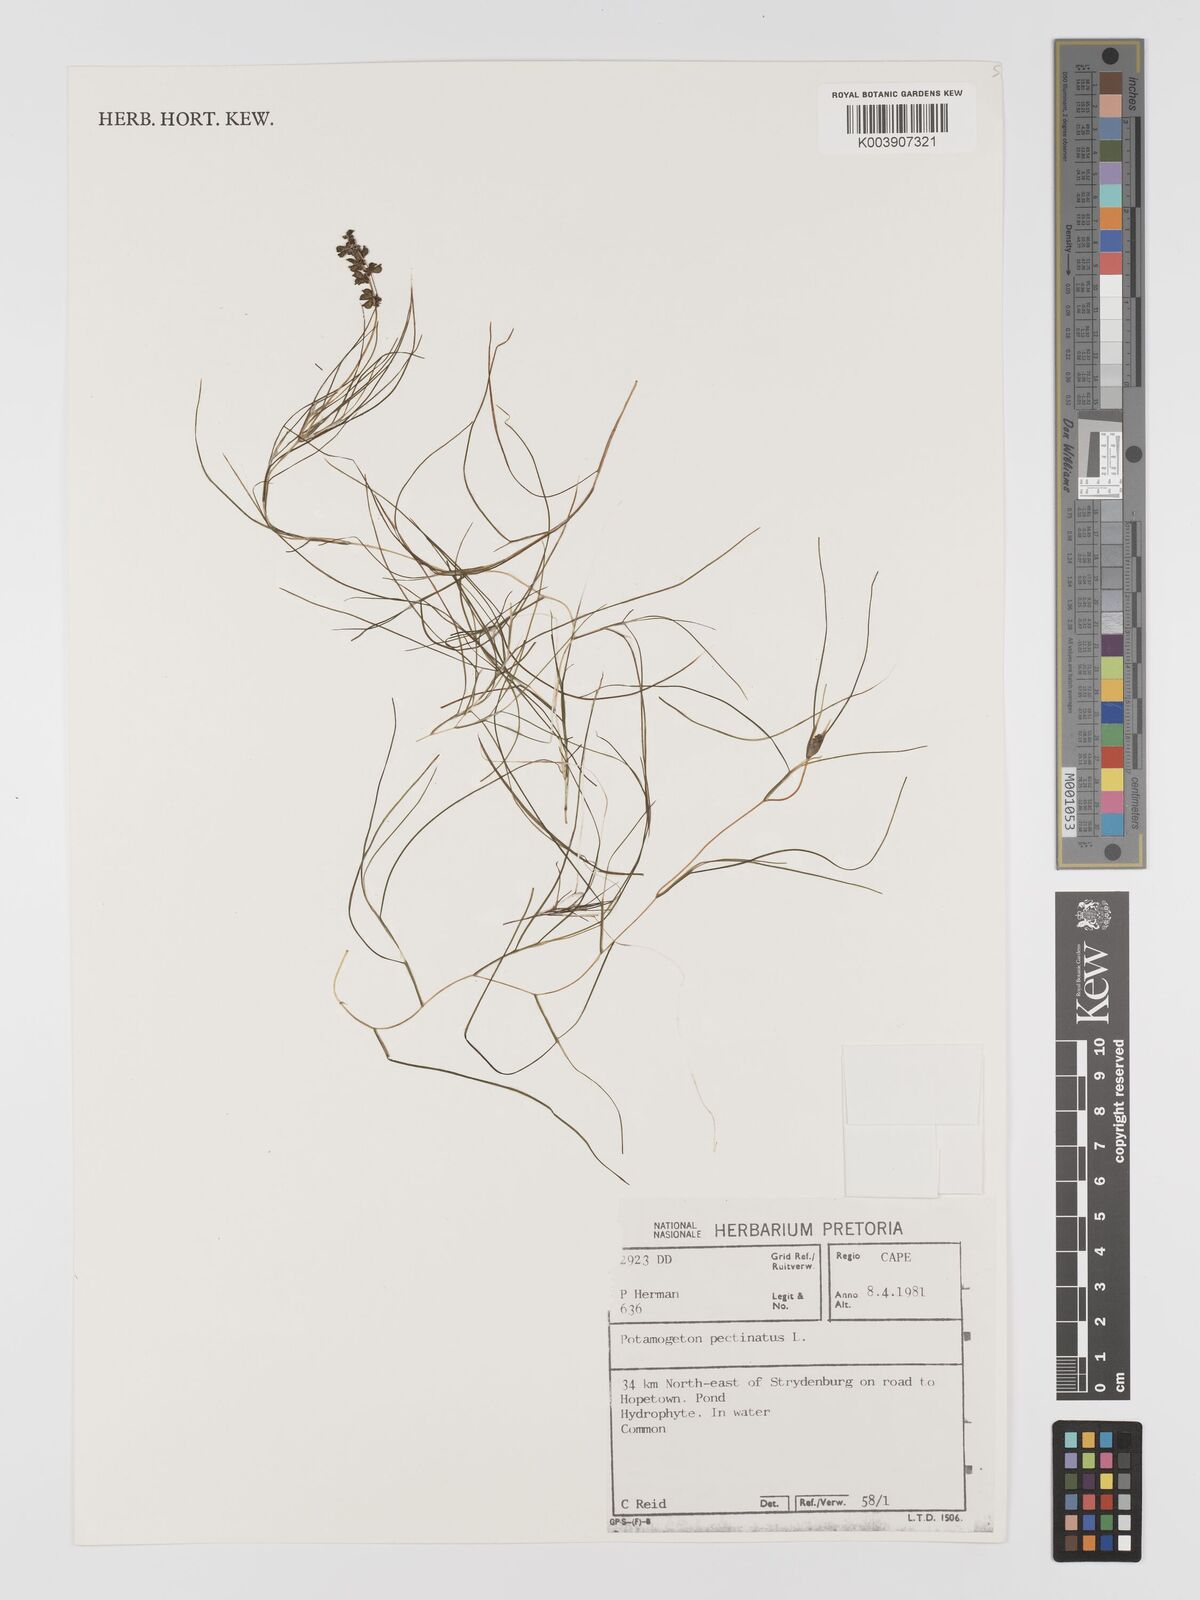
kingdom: Plantae
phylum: Tracheophyta
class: Liliopsida
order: Alismatales
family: Potamogetonaceae
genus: Stuckenia
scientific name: Stuckenia pectinata
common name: Sago pondweed
